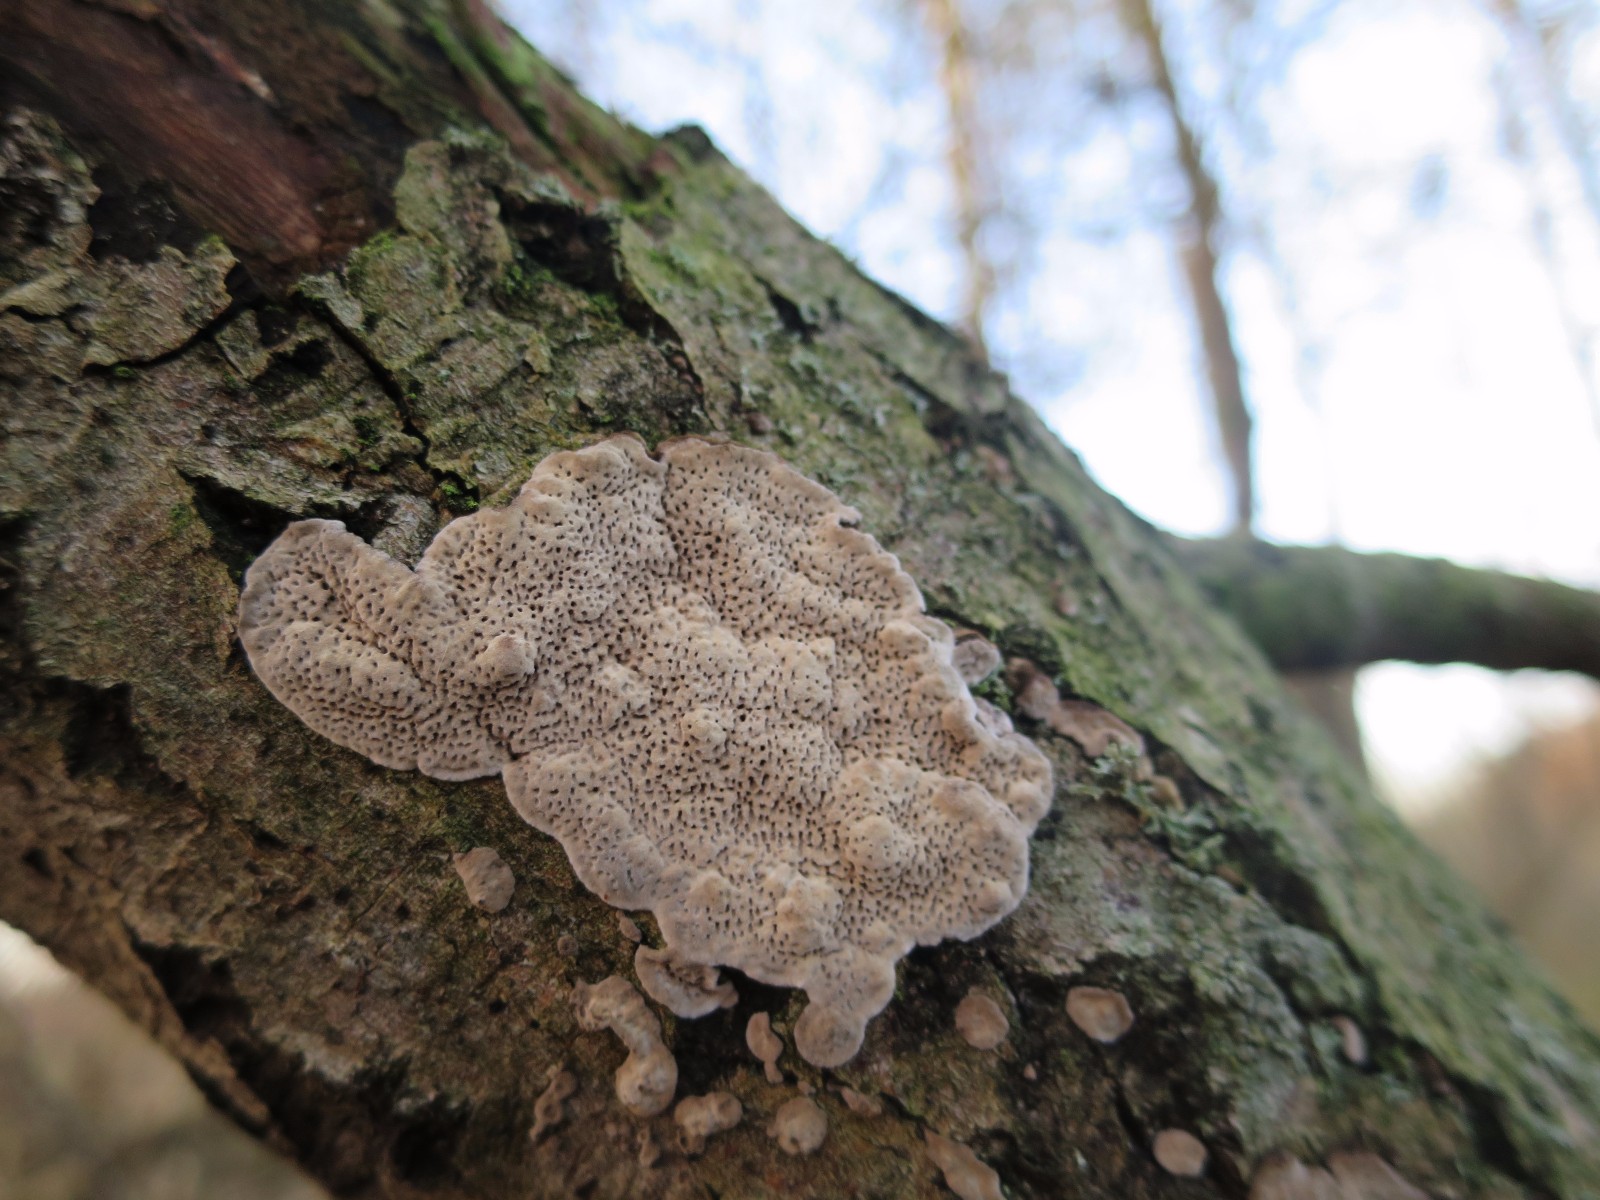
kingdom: Fungi
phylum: Basidiomycota
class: Agaricomycetes
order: Polyporales
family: Polyporaceae
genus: Podofomes
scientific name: Podofomes mollis
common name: blød begporesvamp
